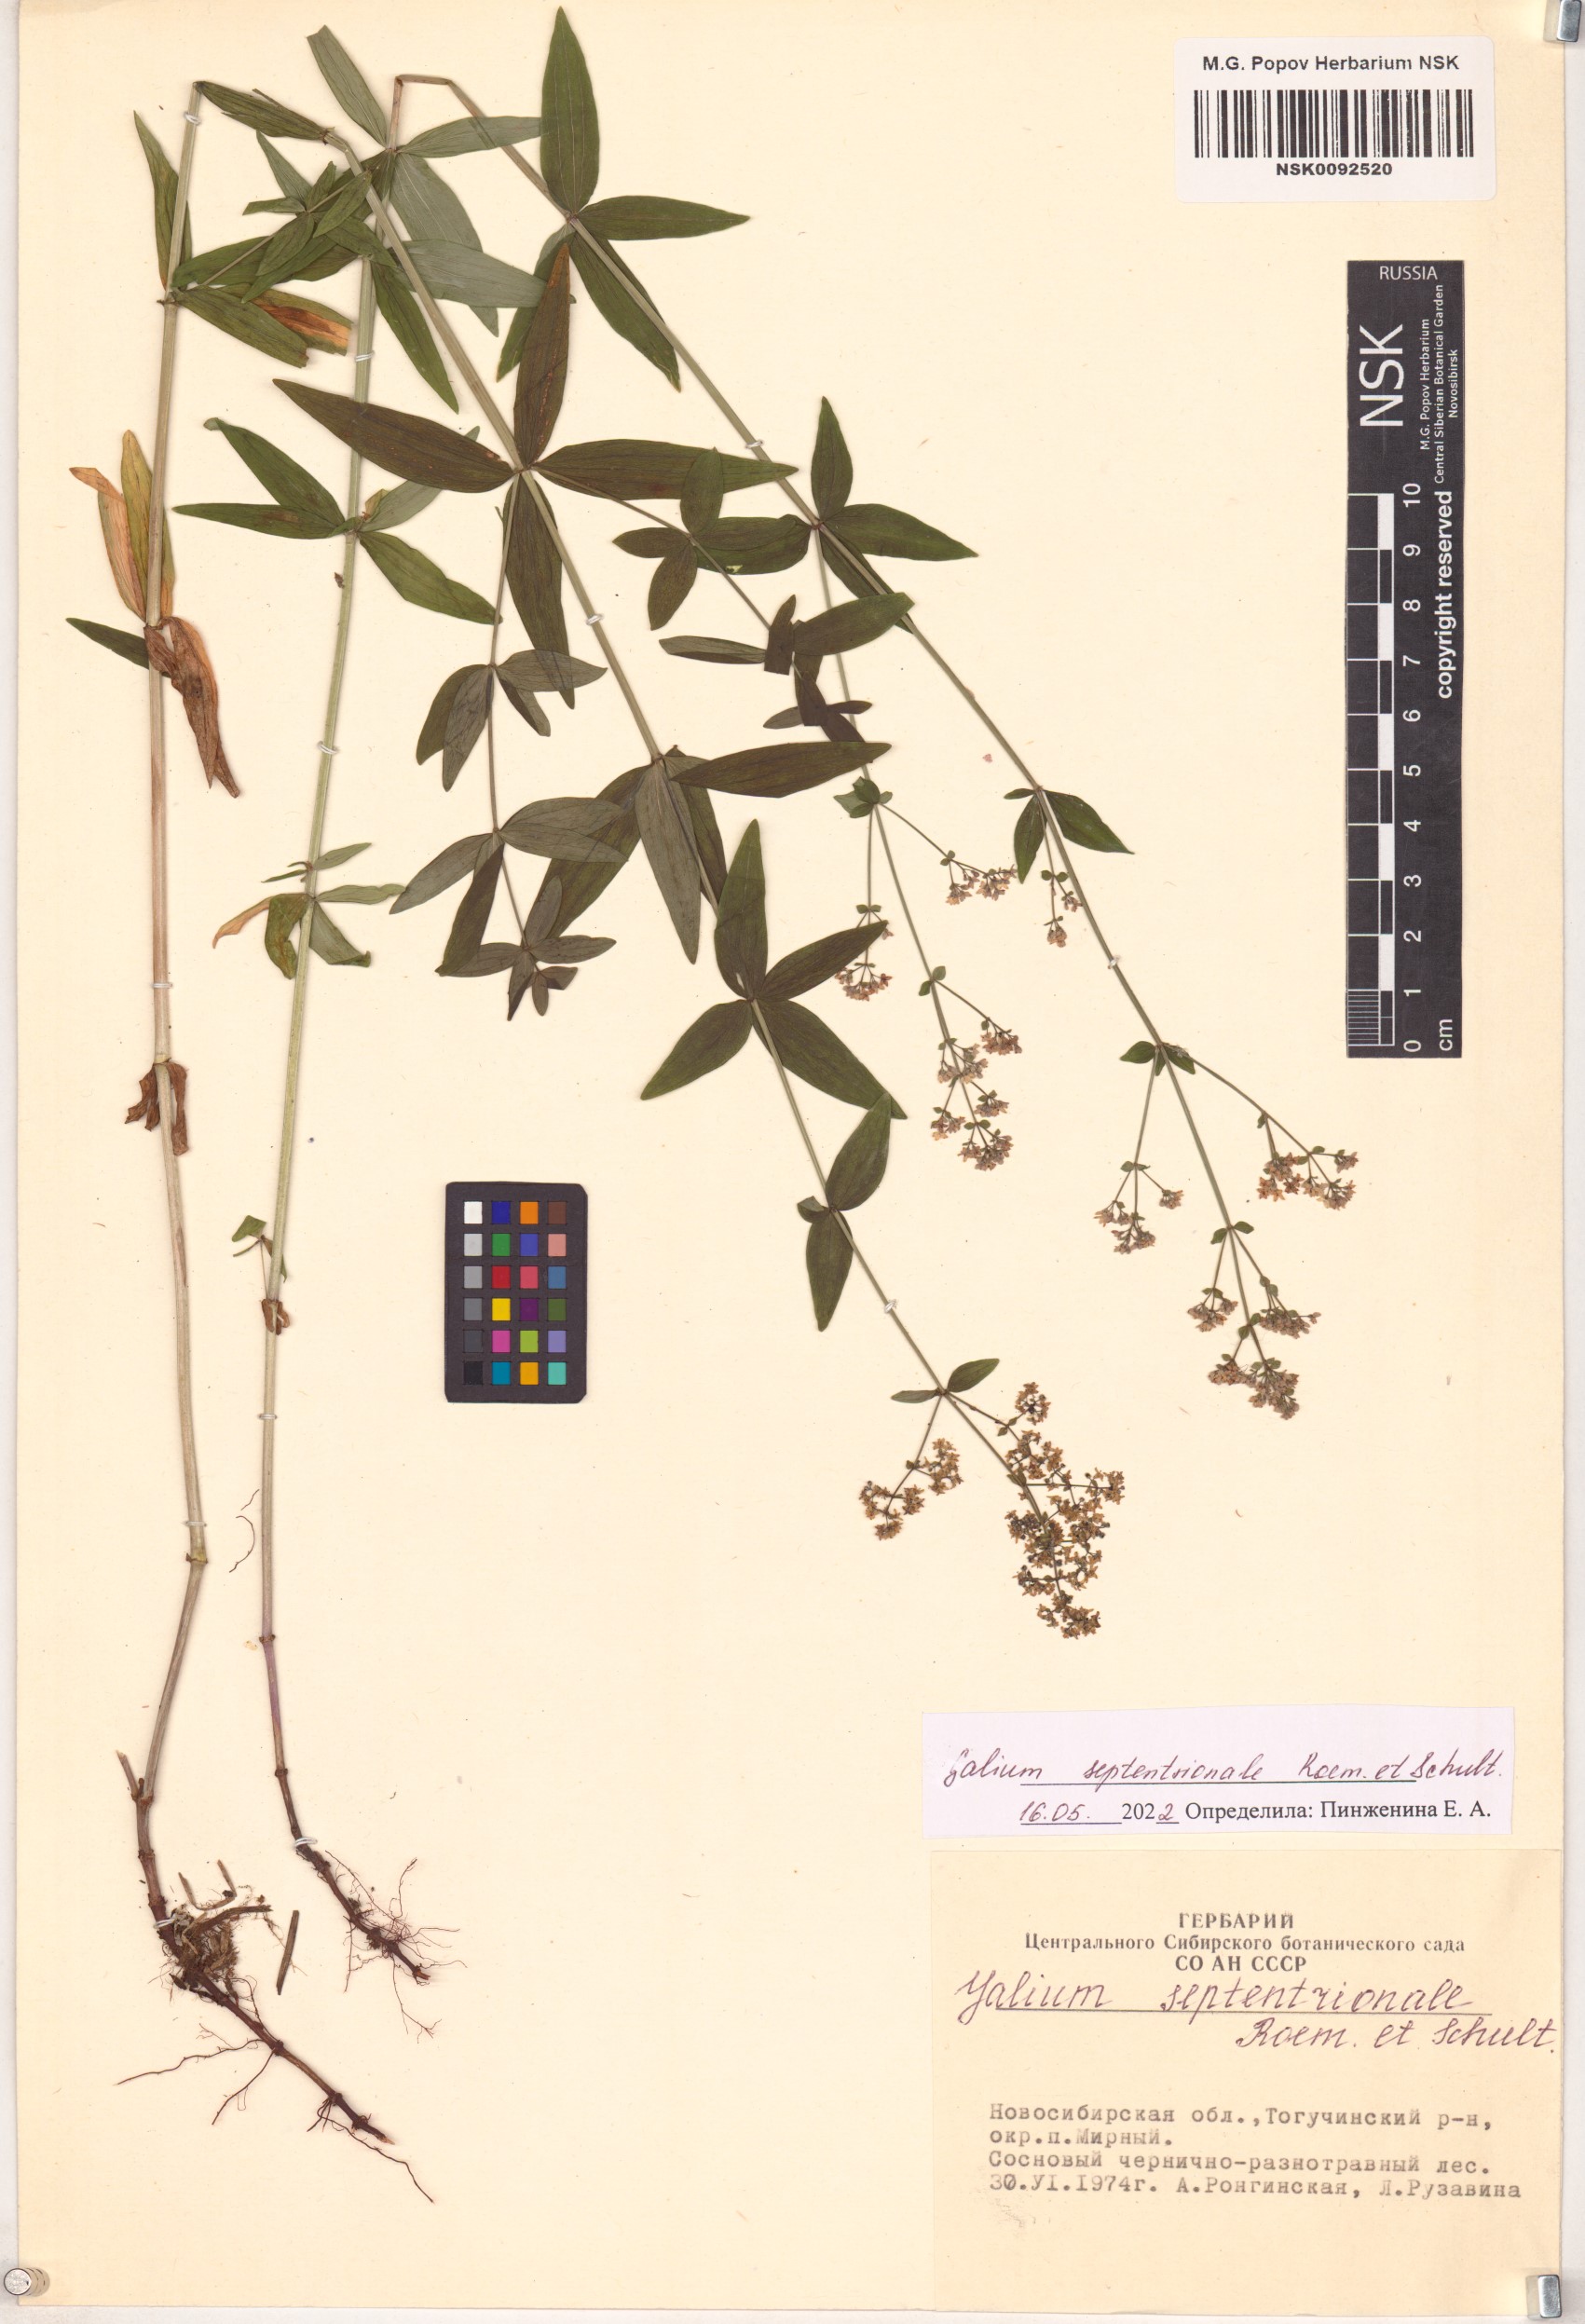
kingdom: Plantae
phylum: Tracheophyta
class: Magnoliopsida
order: Gentianales
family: Rubiaceae
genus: Galium
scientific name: Galium boreale
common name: Northern bedstraw
